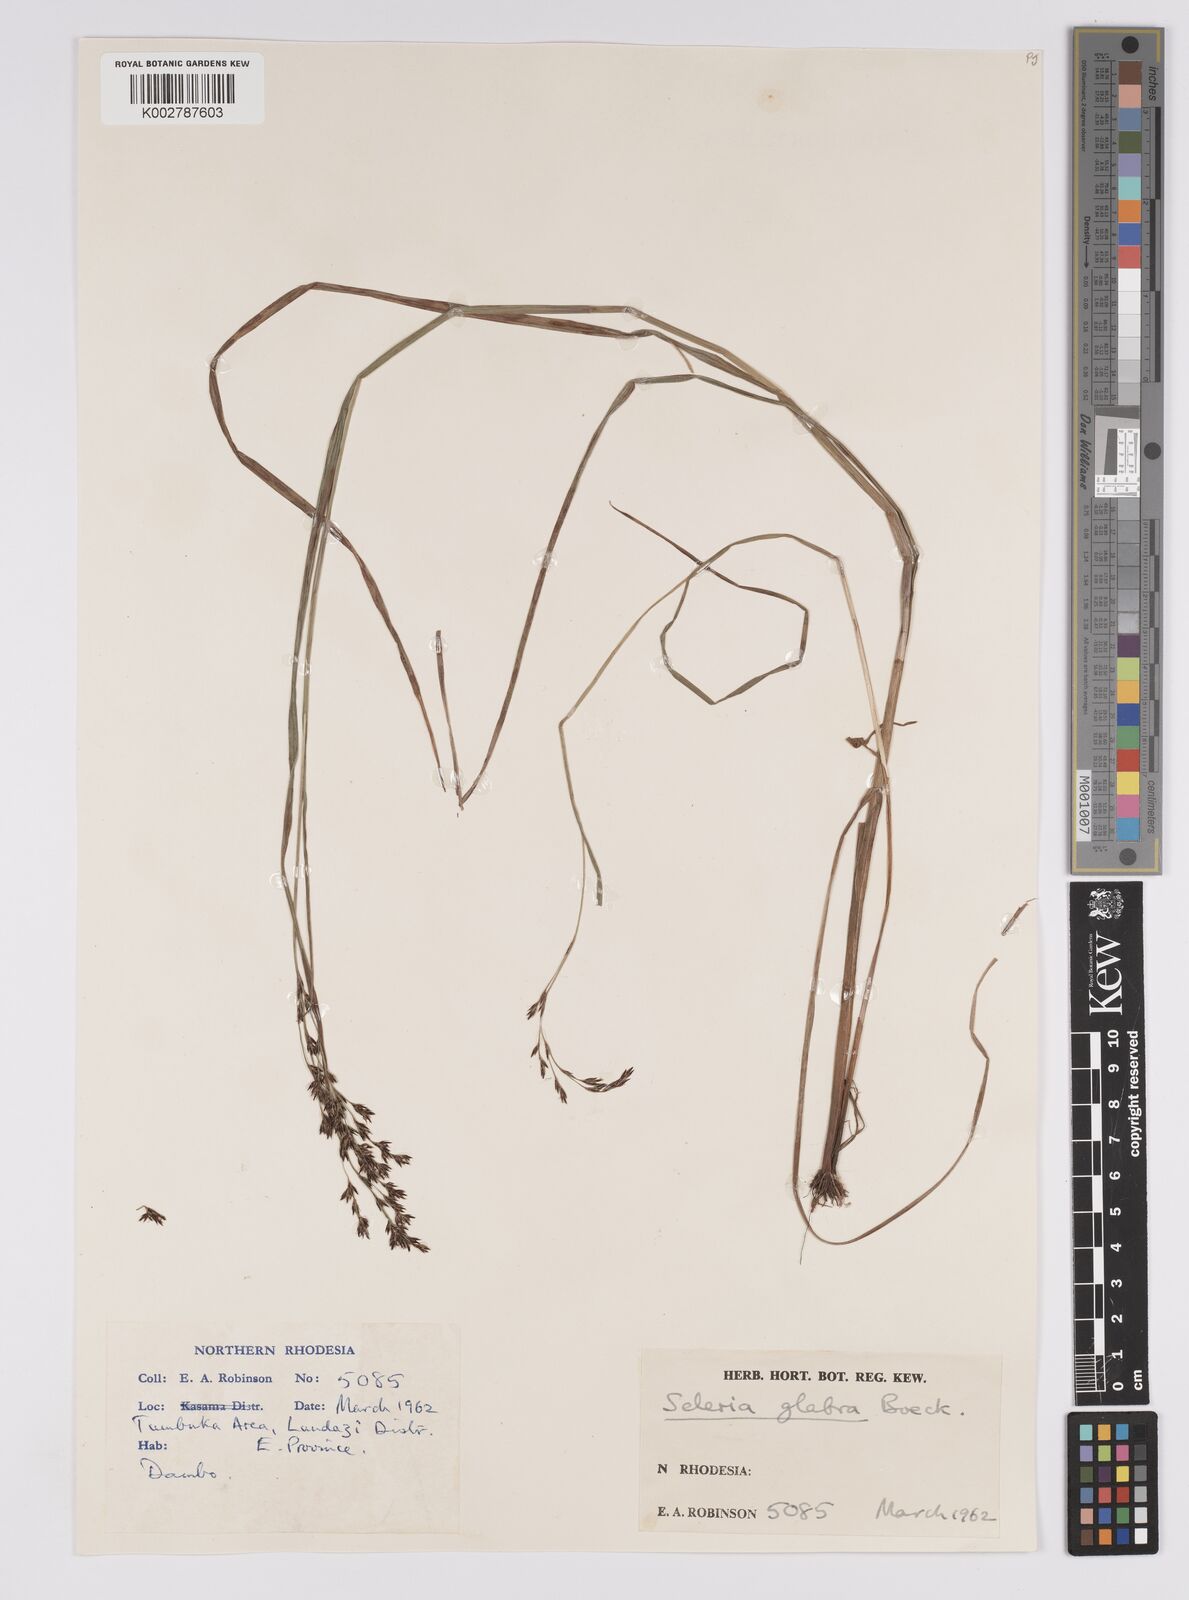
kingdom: Plantae
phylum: Tracheophyta
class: Liliopsida
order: Poales
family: Cyperaceae
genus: Scleria
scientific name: Scleria glabra
